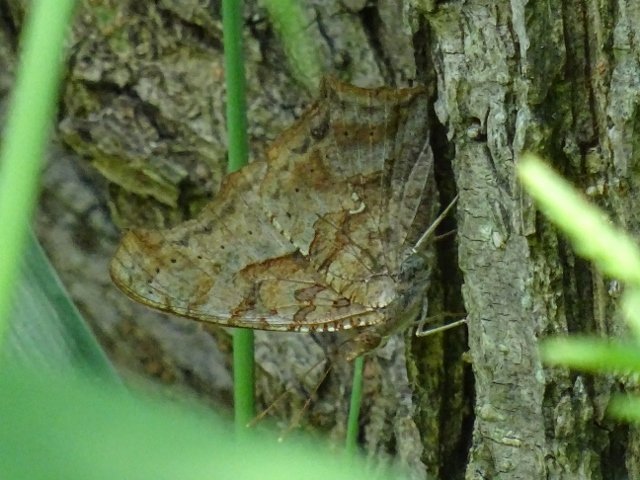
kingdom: Animalia
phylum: Arthropoda
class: Insecta
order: Lepidoptera
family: Nymphalidae
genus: Polygonia
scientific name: Polygonia interrogationis
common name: Question Mark
